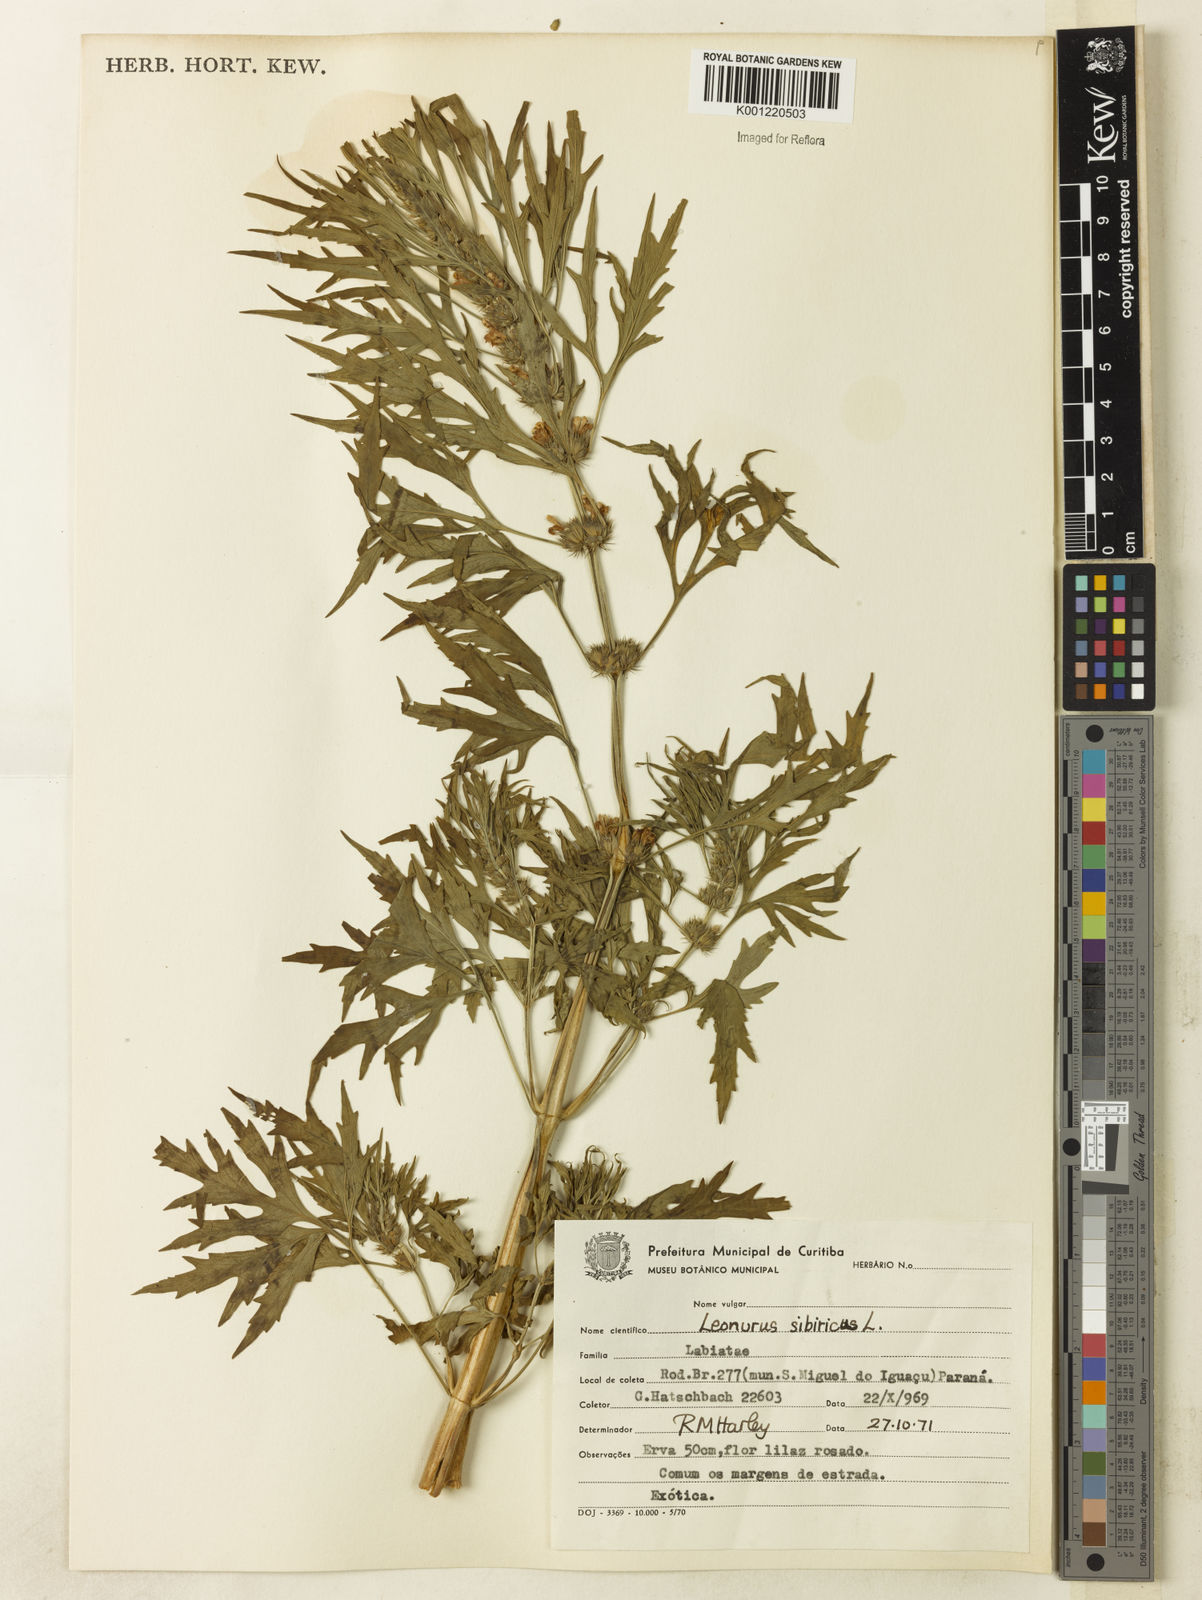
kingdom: Plantae
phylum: Tracheophyta
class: Magnoliopsida
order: Lamiales
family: Lamiaceae
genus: Leonurus
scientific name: Leonurus japonicus
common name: Honeyweed
